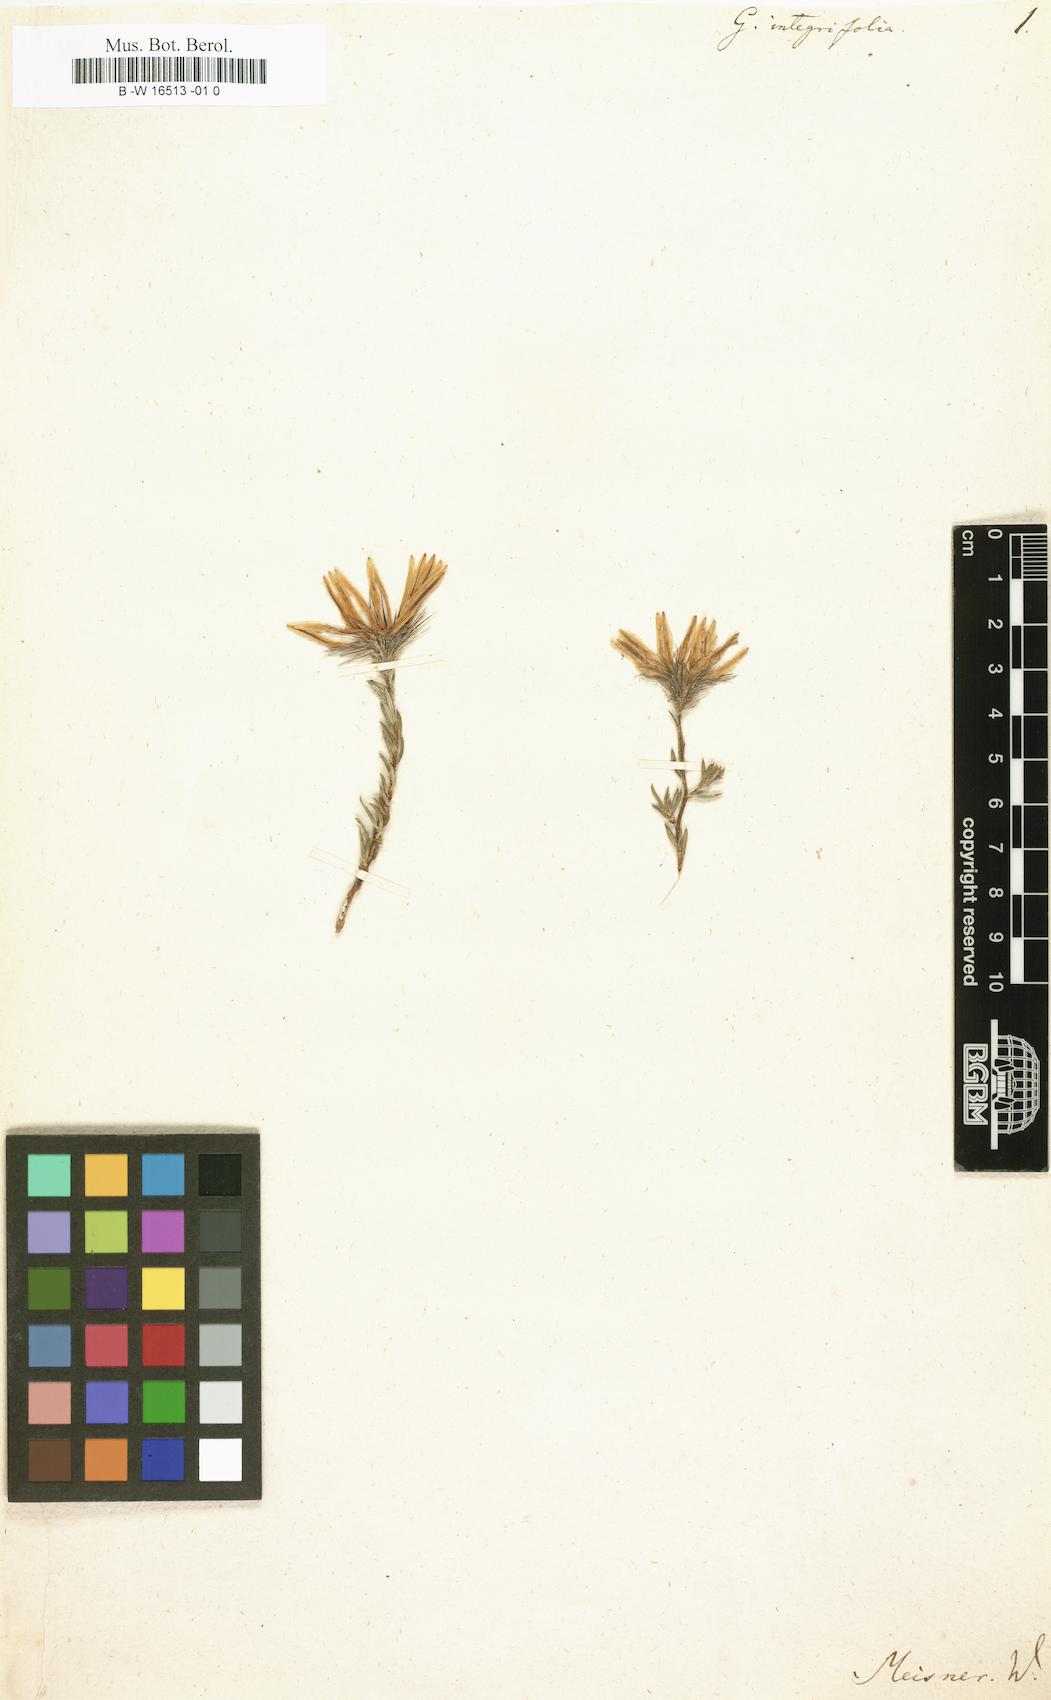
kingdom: Plantae
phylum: Tracheophyta
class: Magnoliopsida
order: Asterales
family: Asteraceae
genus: Hirpicium
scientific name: Hirpicium integrifolium
